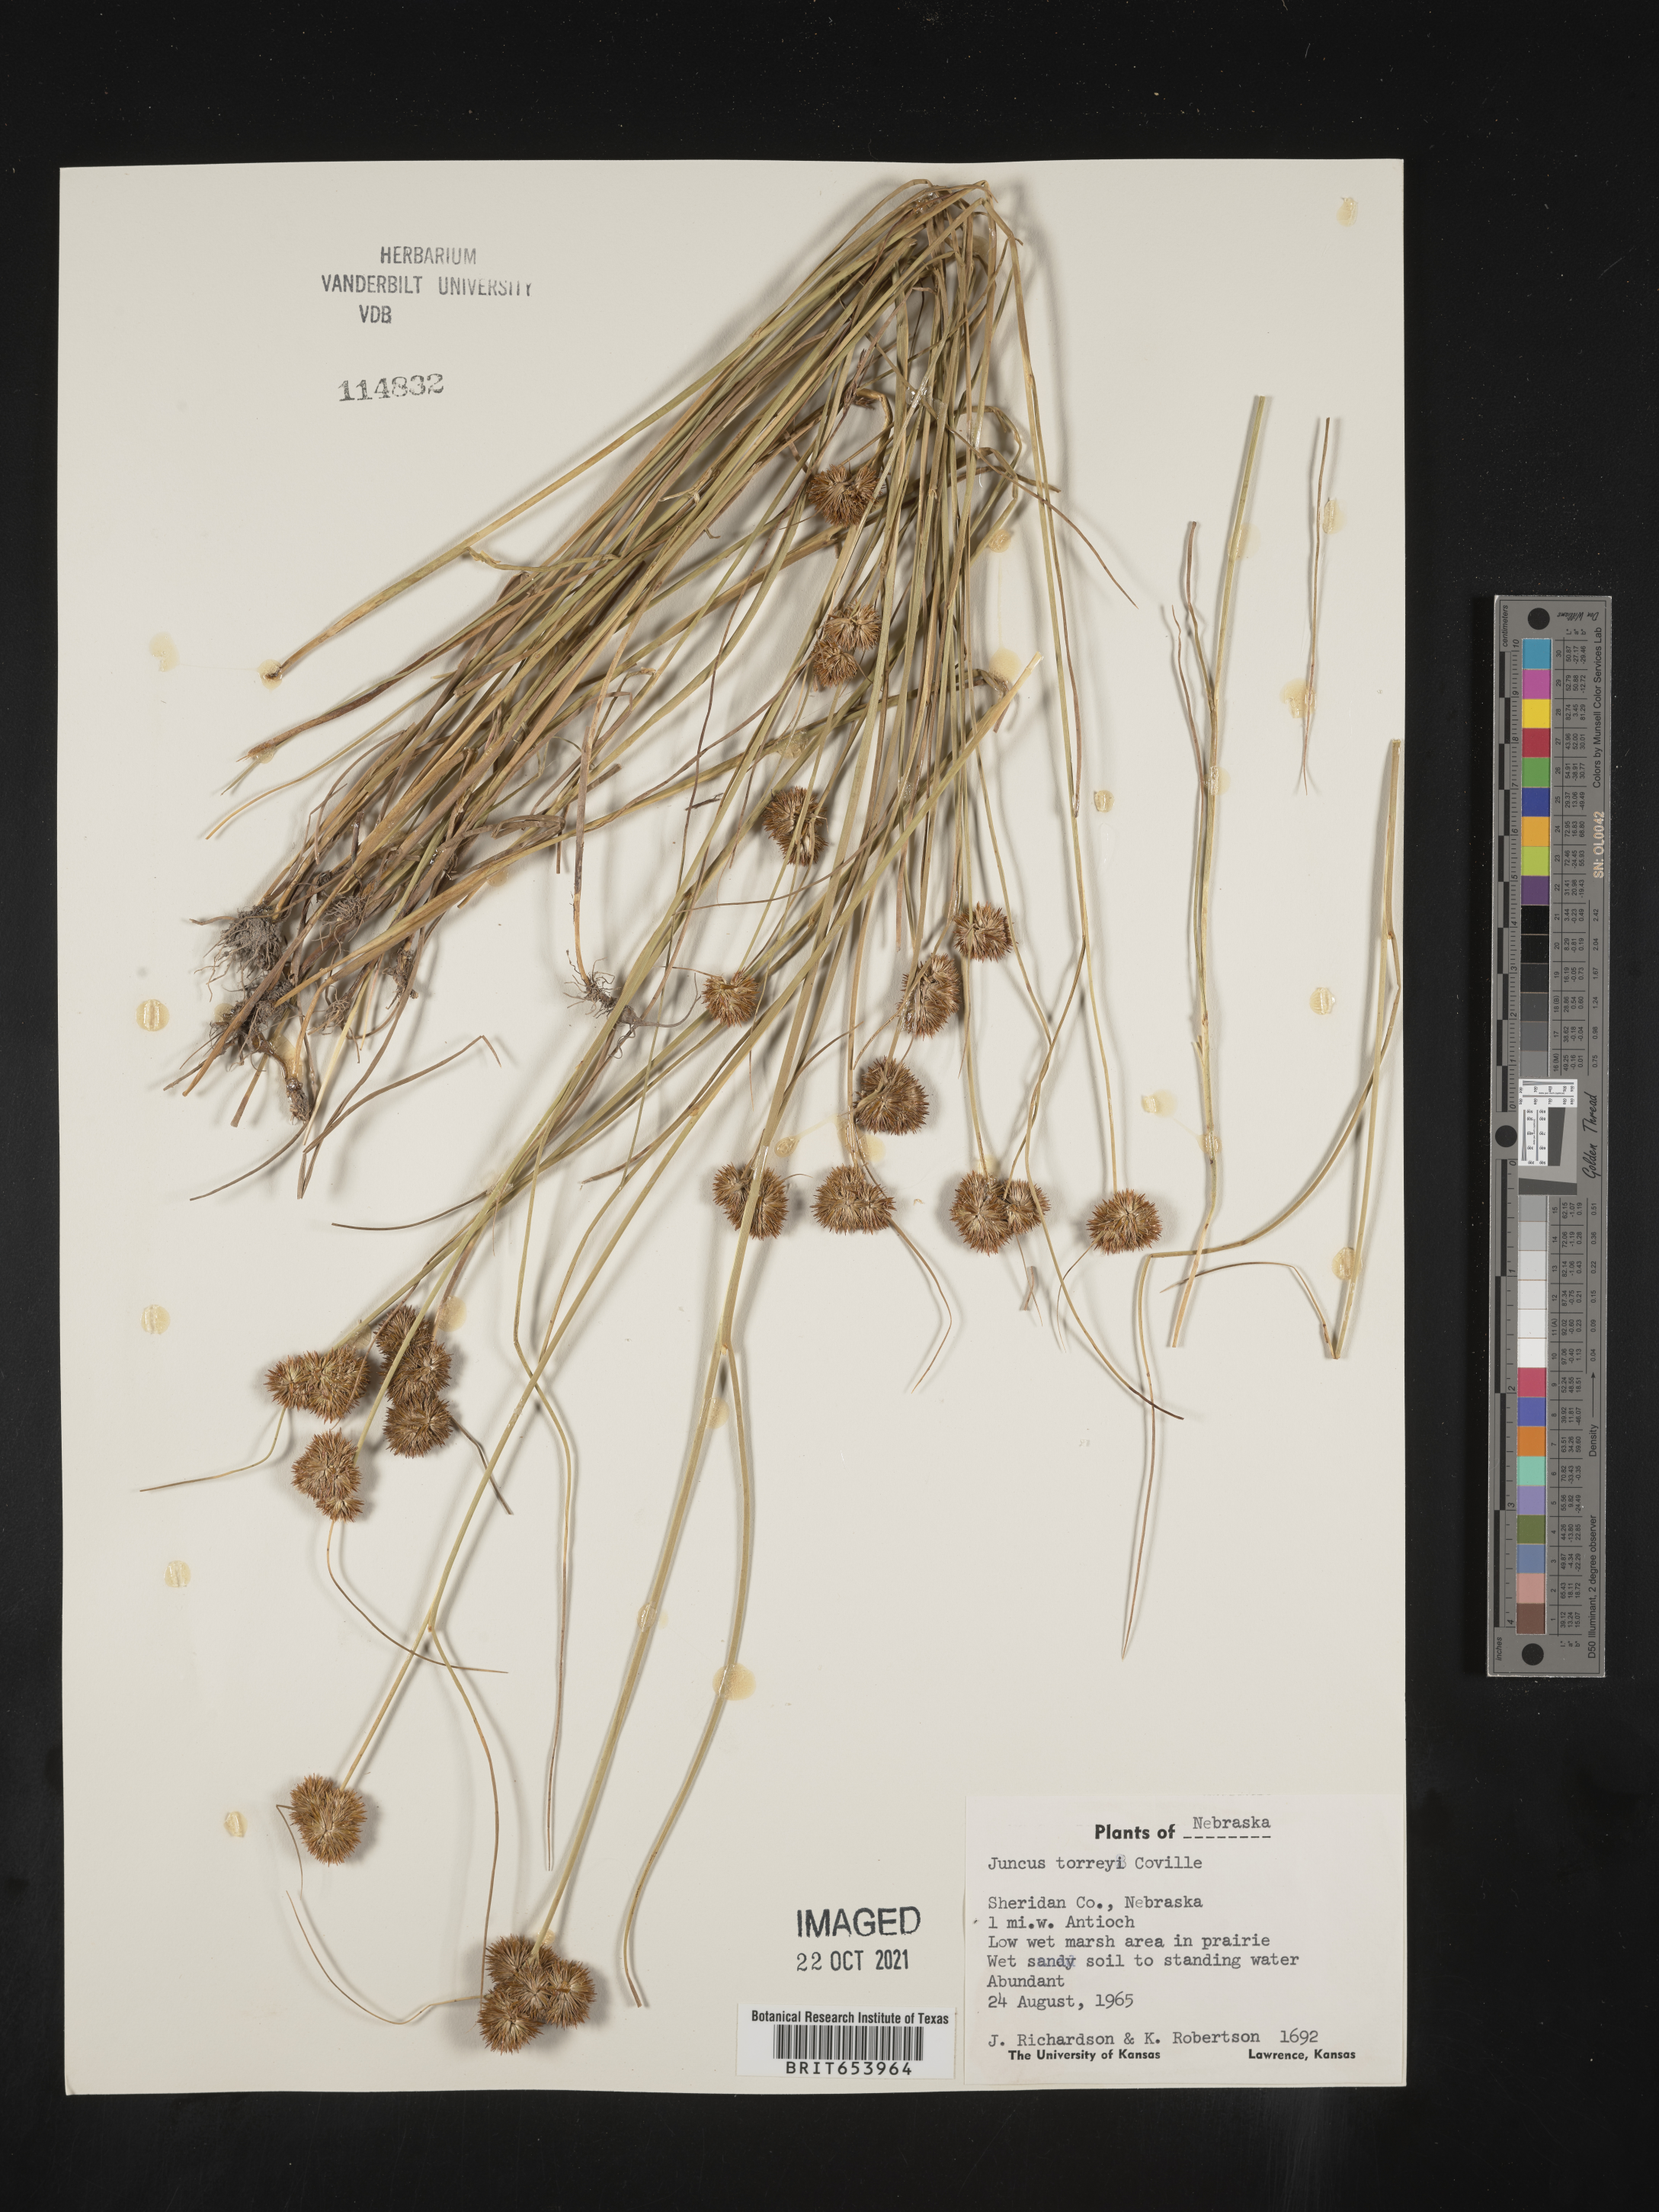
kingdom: Plantae
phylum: Tracheophyta
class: Liliopsida
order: Poales
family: Juncaceae
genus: Juncus
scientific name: Juncus torreyi
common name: Torrey's rush
